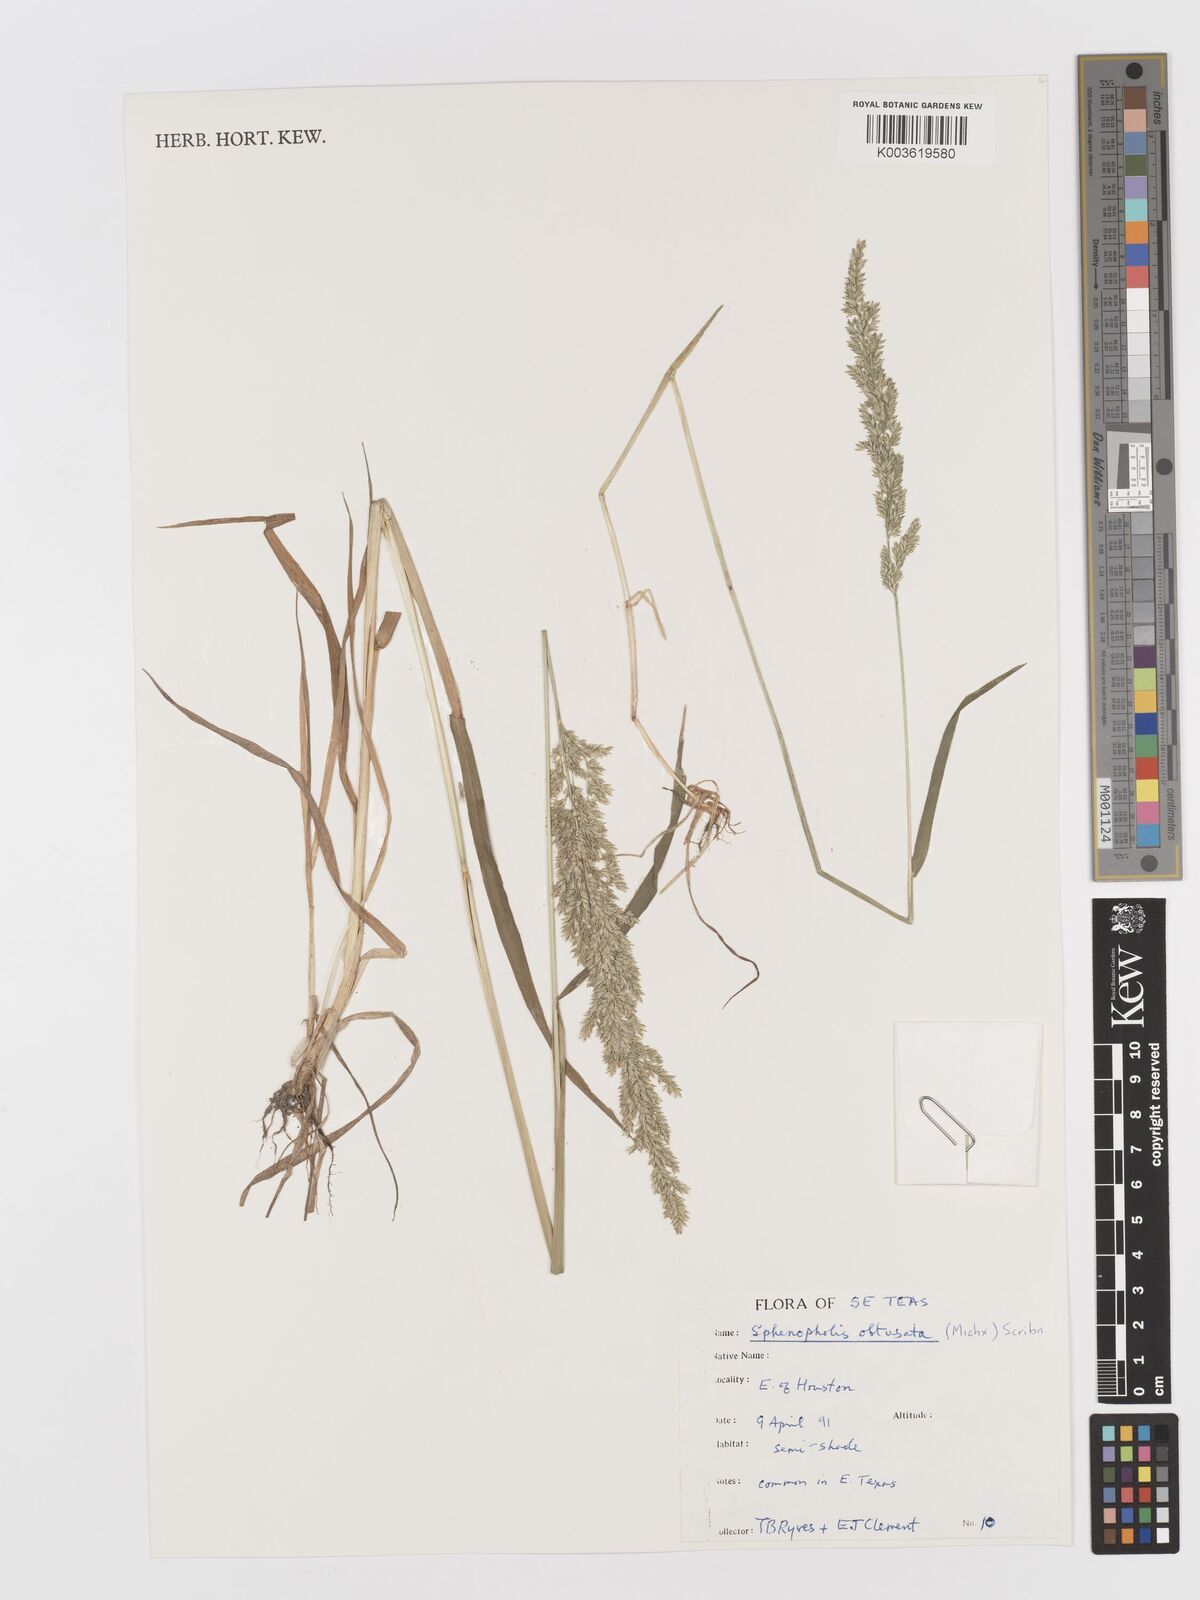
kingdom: Plantae
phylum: Tracheophyta
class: Liliopsida
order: Poales
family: Poaceae
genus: Sphenopholis
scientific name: Sphenopholis obtusata
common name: Prairie grass
